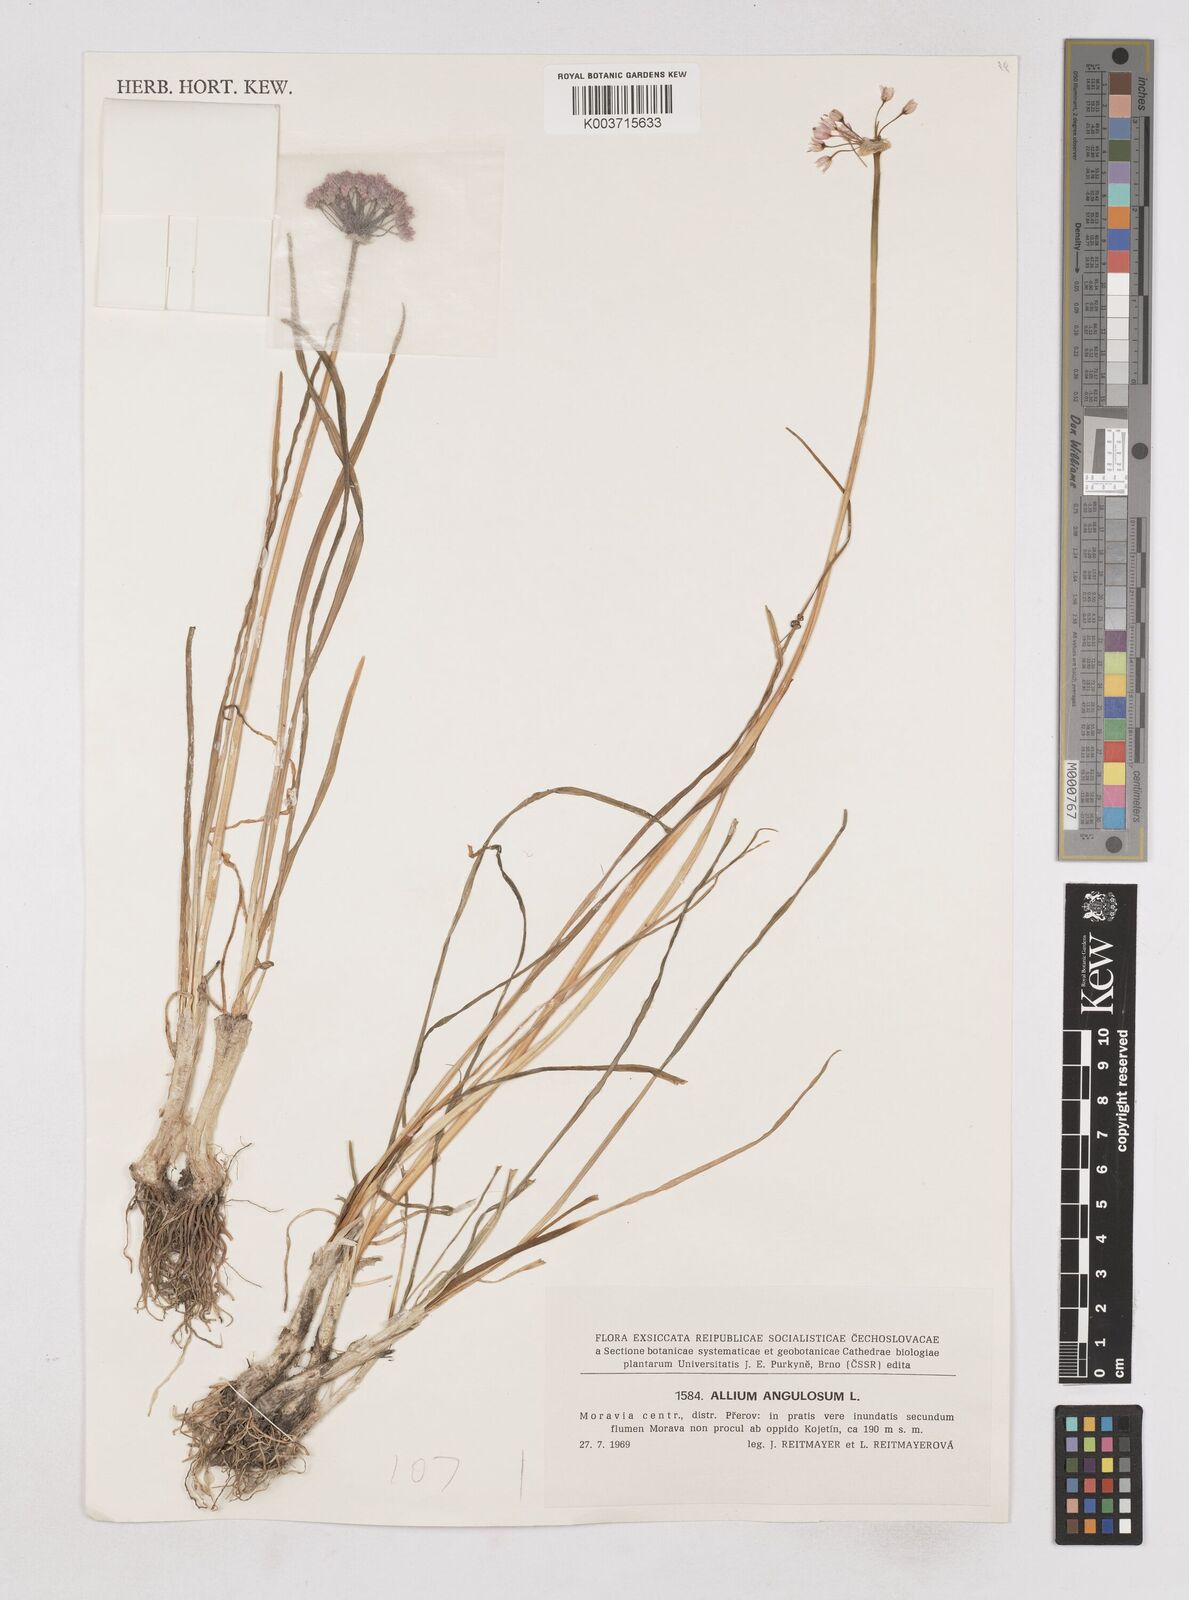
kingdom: Plantae
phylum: Tracheophyta
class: Liliopsida
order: Asparagales
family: Amaryllidaceae
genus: Allium
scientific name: Allium
